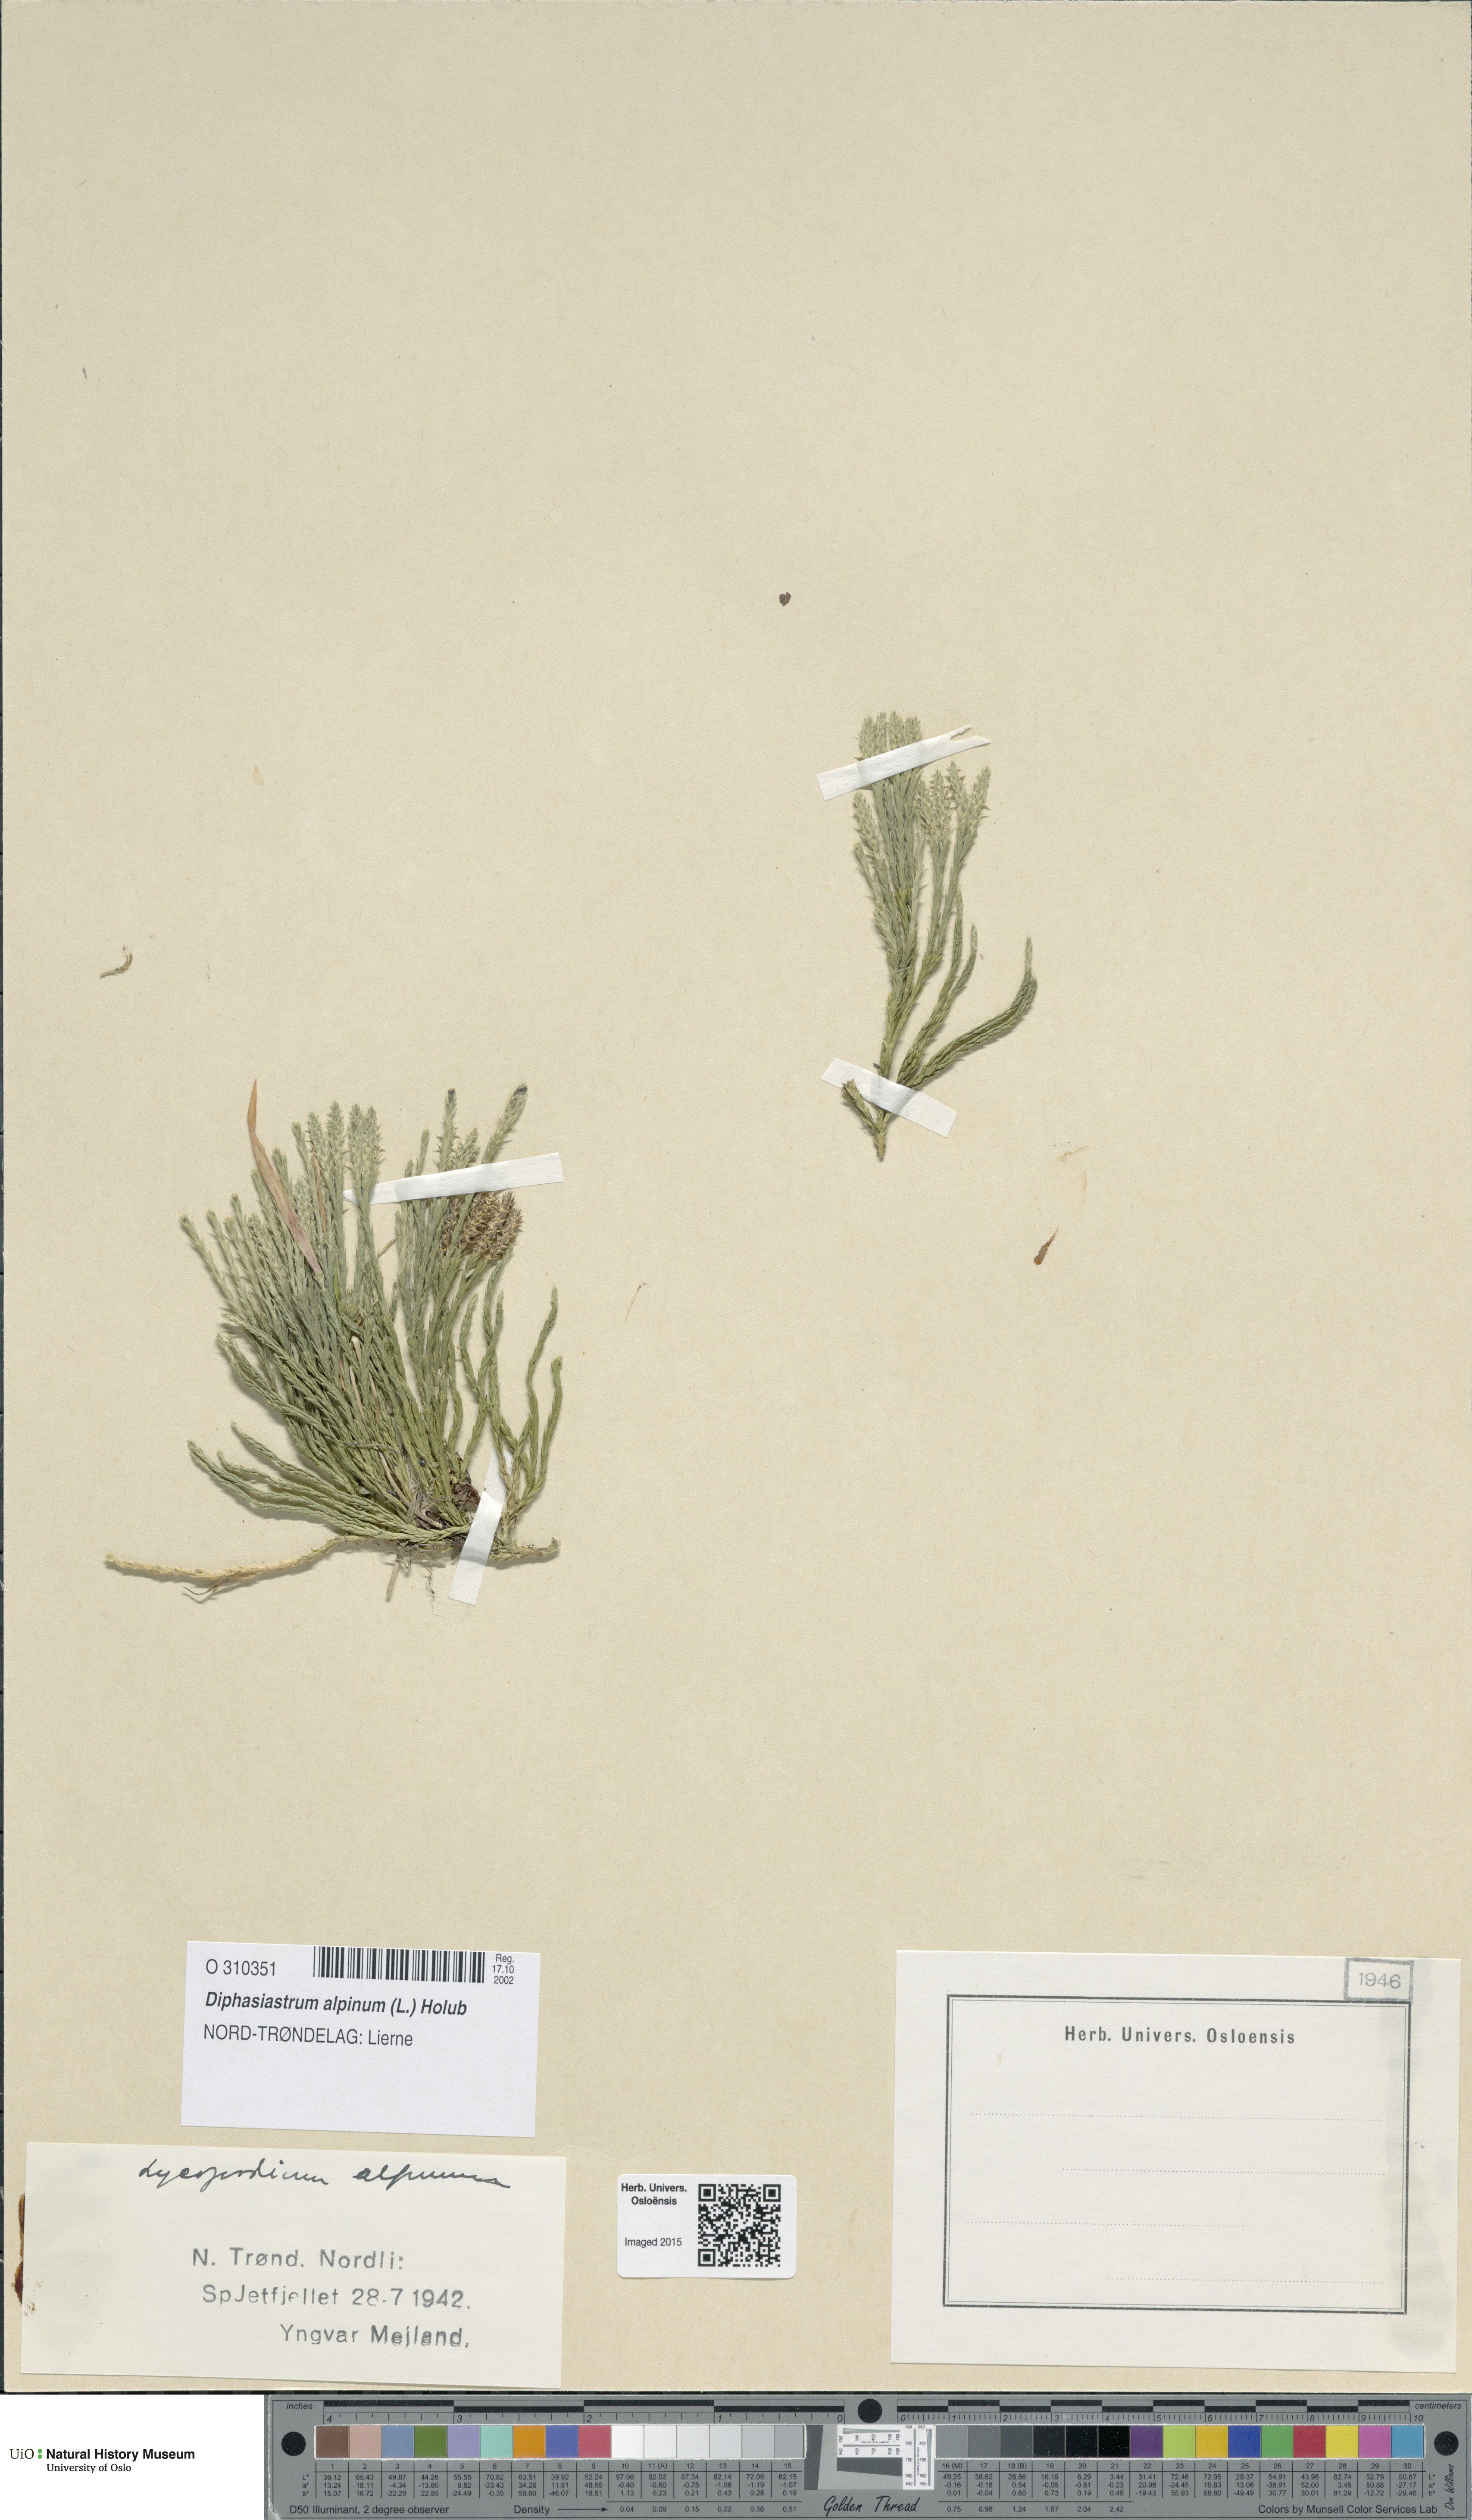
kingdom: Plantae
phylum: Tracheophyta
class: Lycopodiopsida
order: Lycopodiales
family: Lycopodiaceae
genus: Diphasiastrum
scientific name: Diphasiastrum alpinum
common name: Alpine clubmoss
